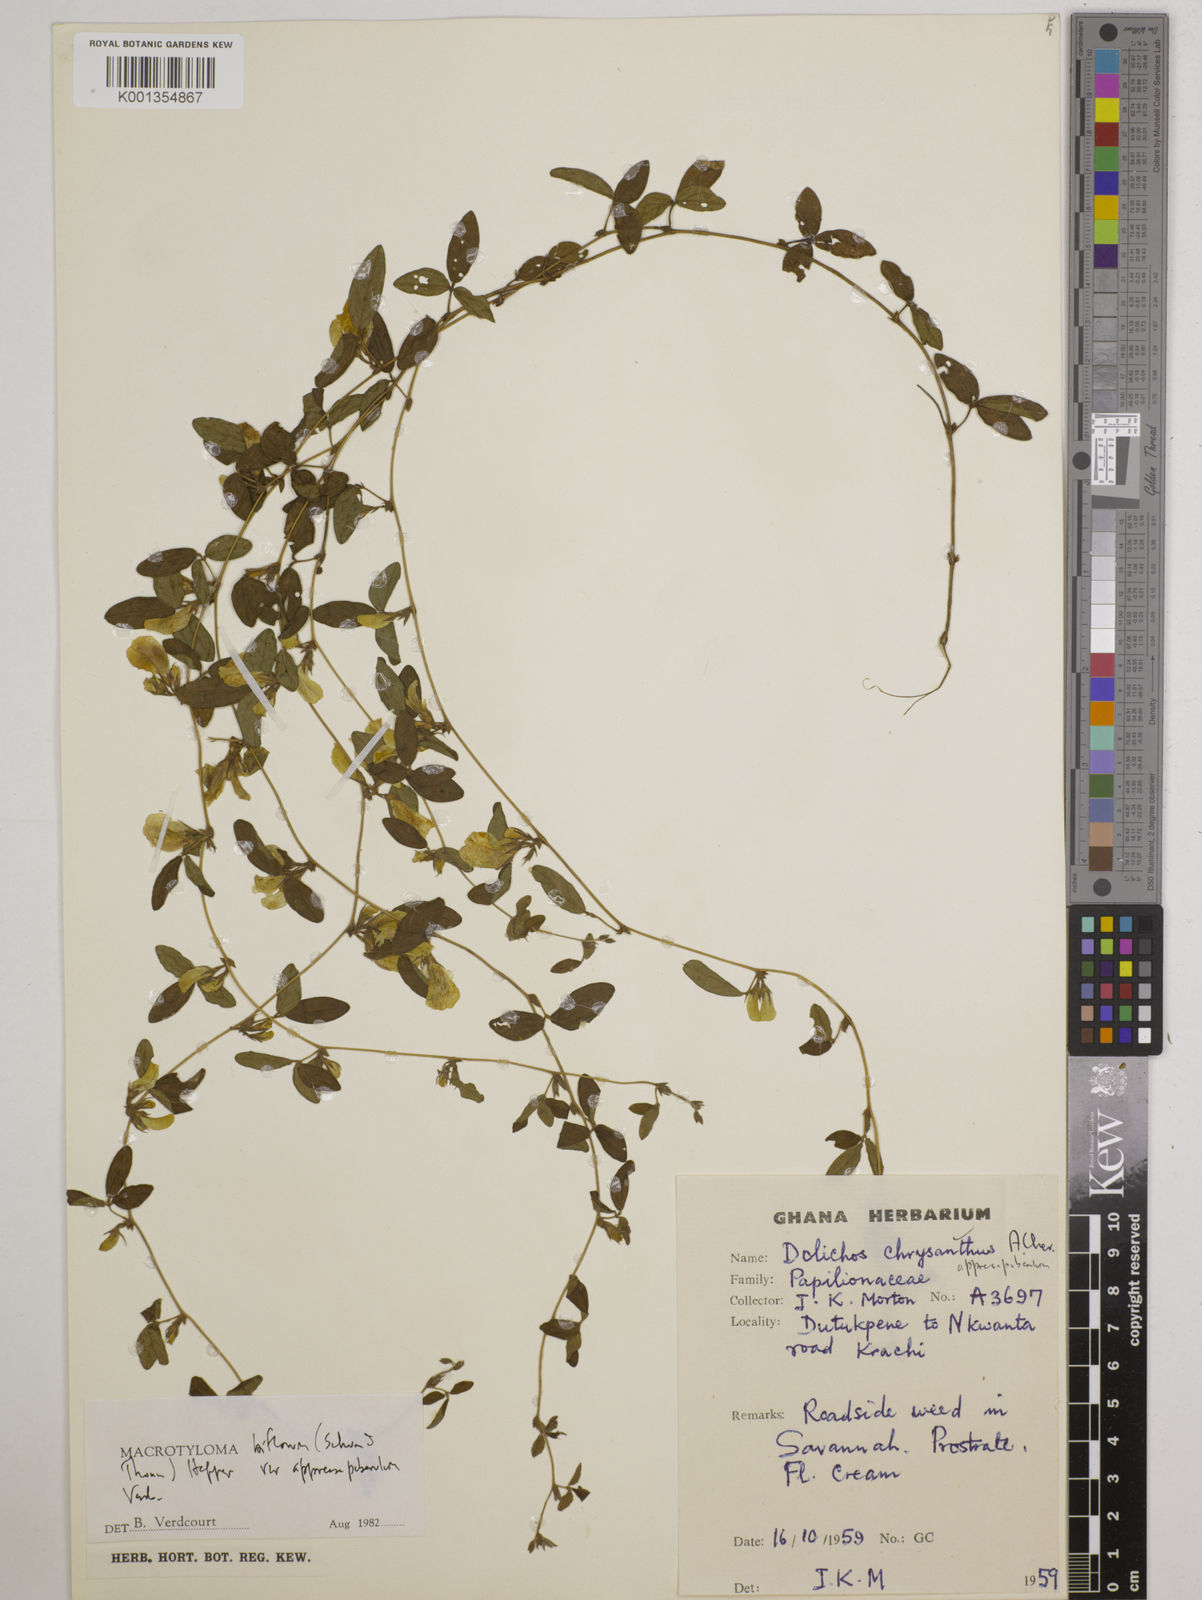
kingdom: Plantae
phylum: Tracheophyta
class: Magnoliopsida
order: Fabales
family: Fabaceae
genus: Macrotyloma
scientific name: Macrotyloma biflorum
